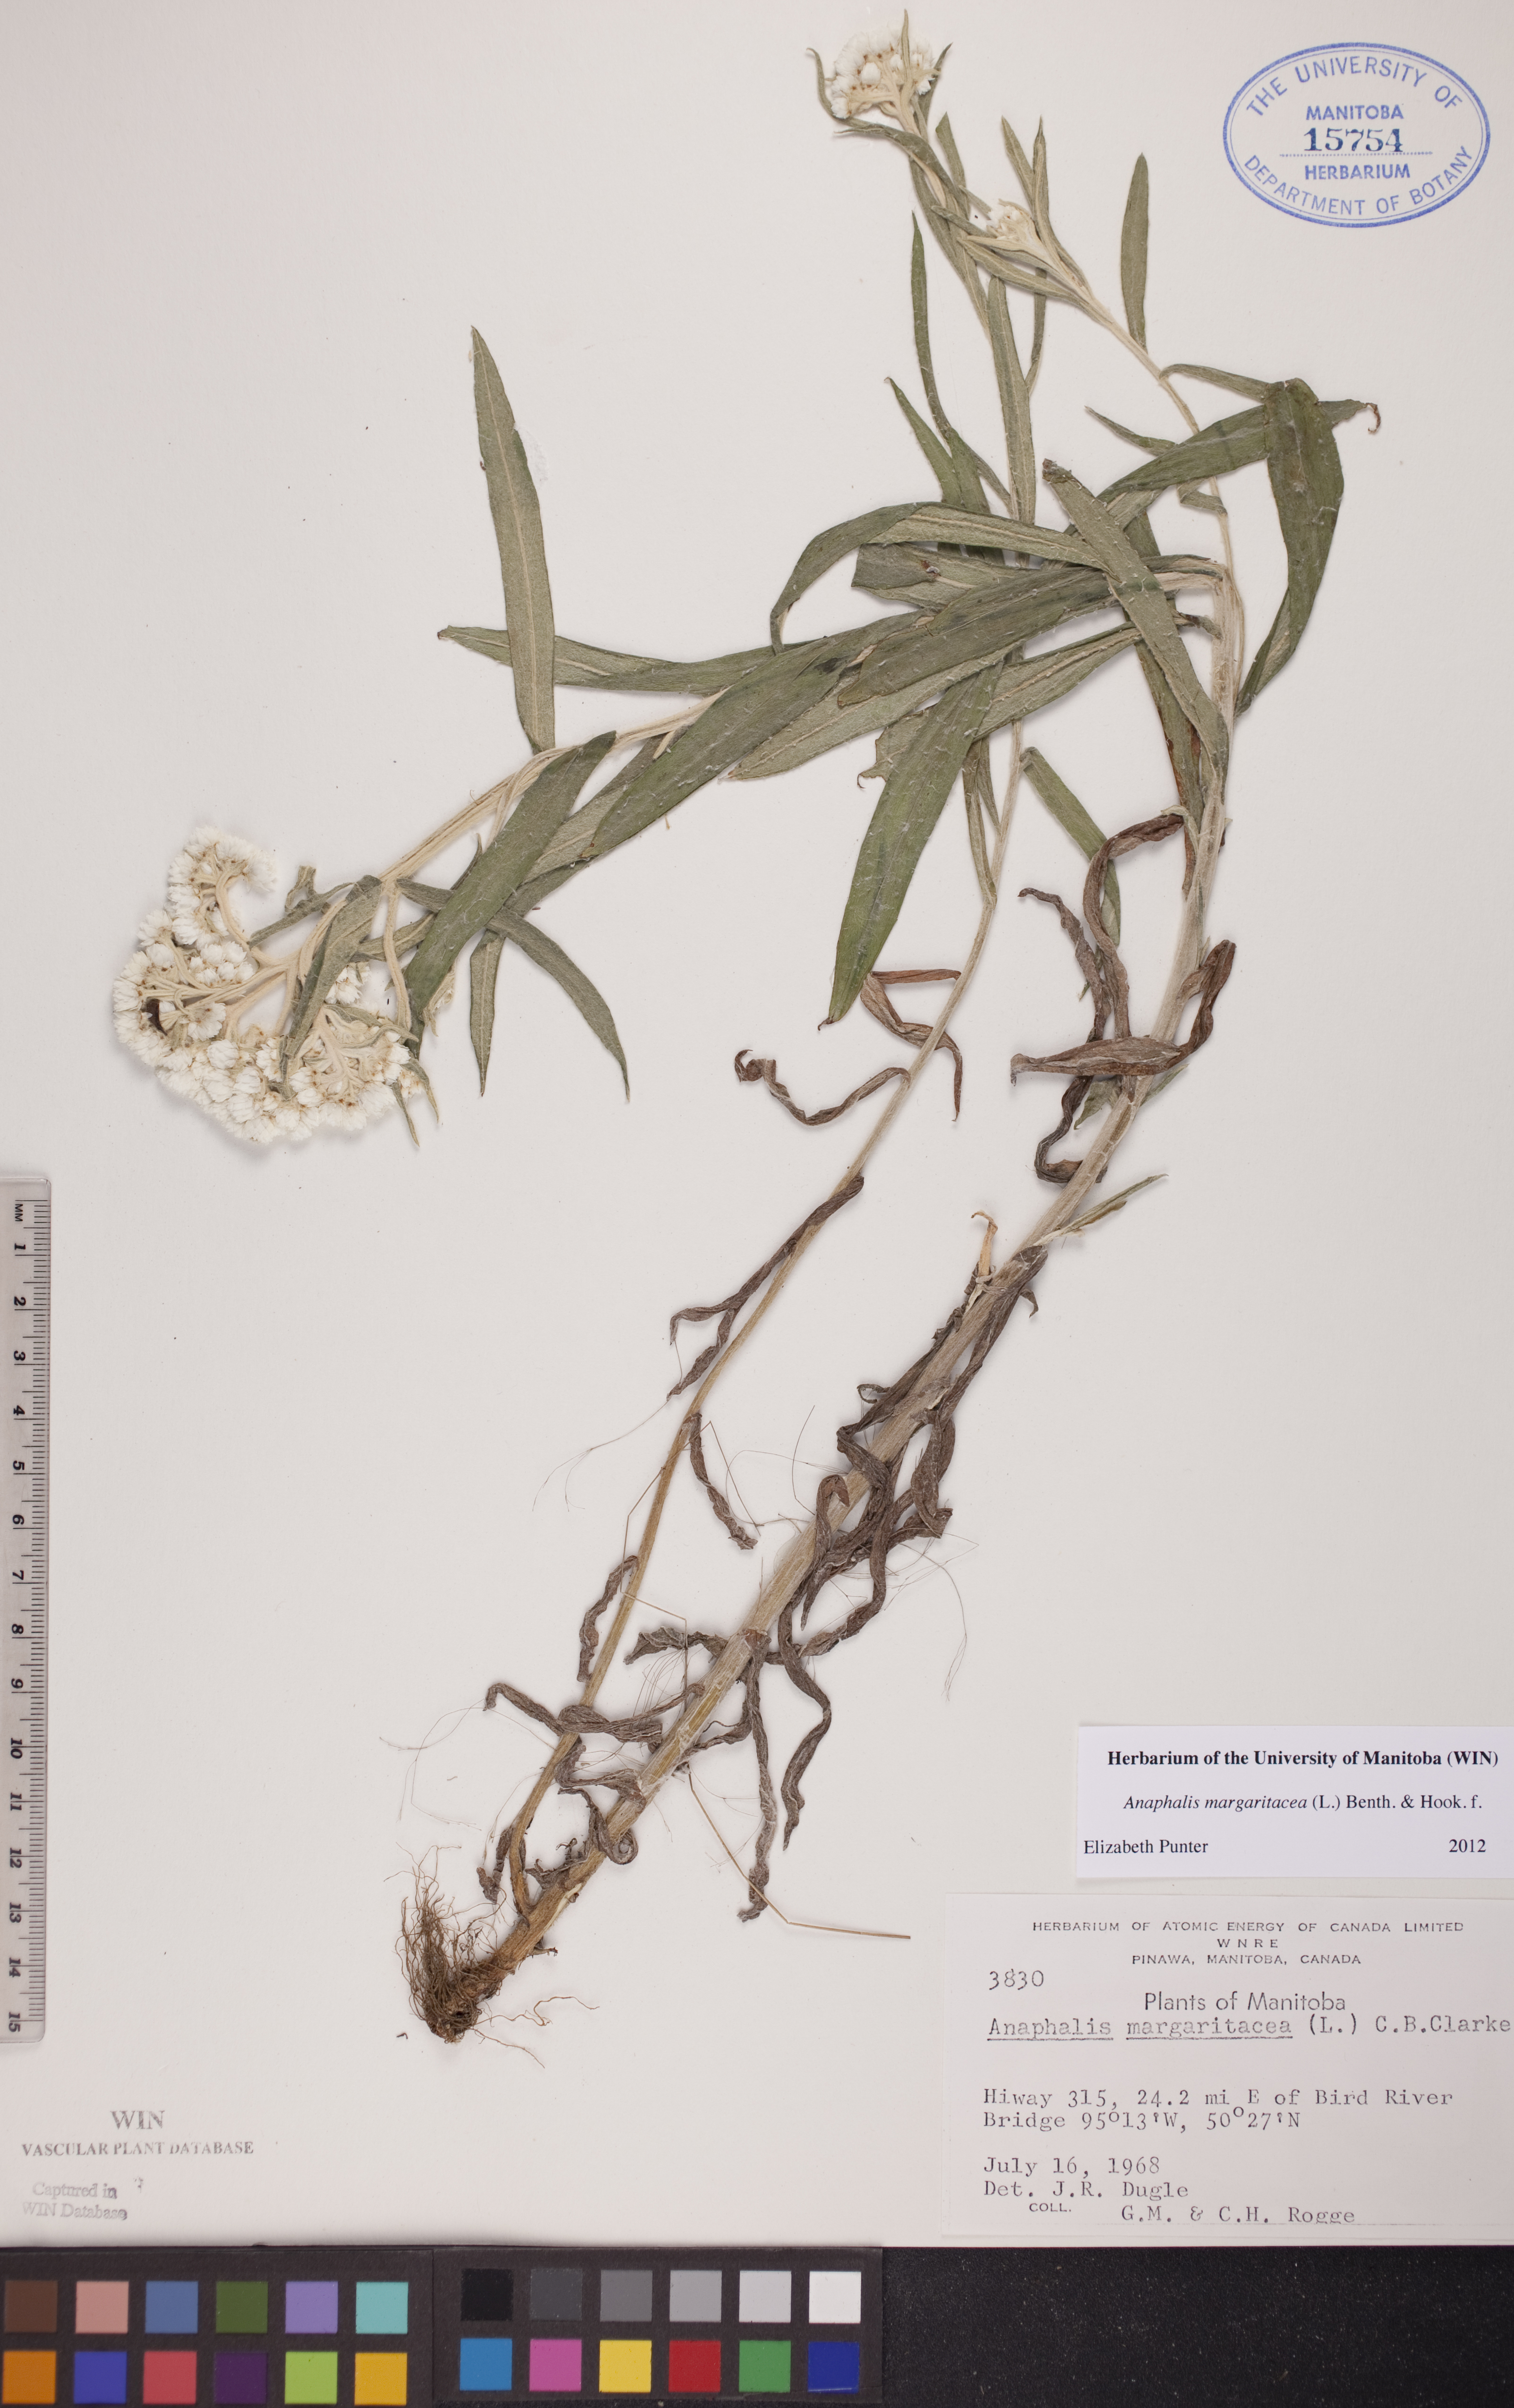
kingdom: Plantae
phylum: Tracheophyta
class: Magnoliopsida
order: Asterales
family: Asteraceae
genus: Anaphalis
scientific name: Anaphalis margaritacea
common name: Pearly everlasting
